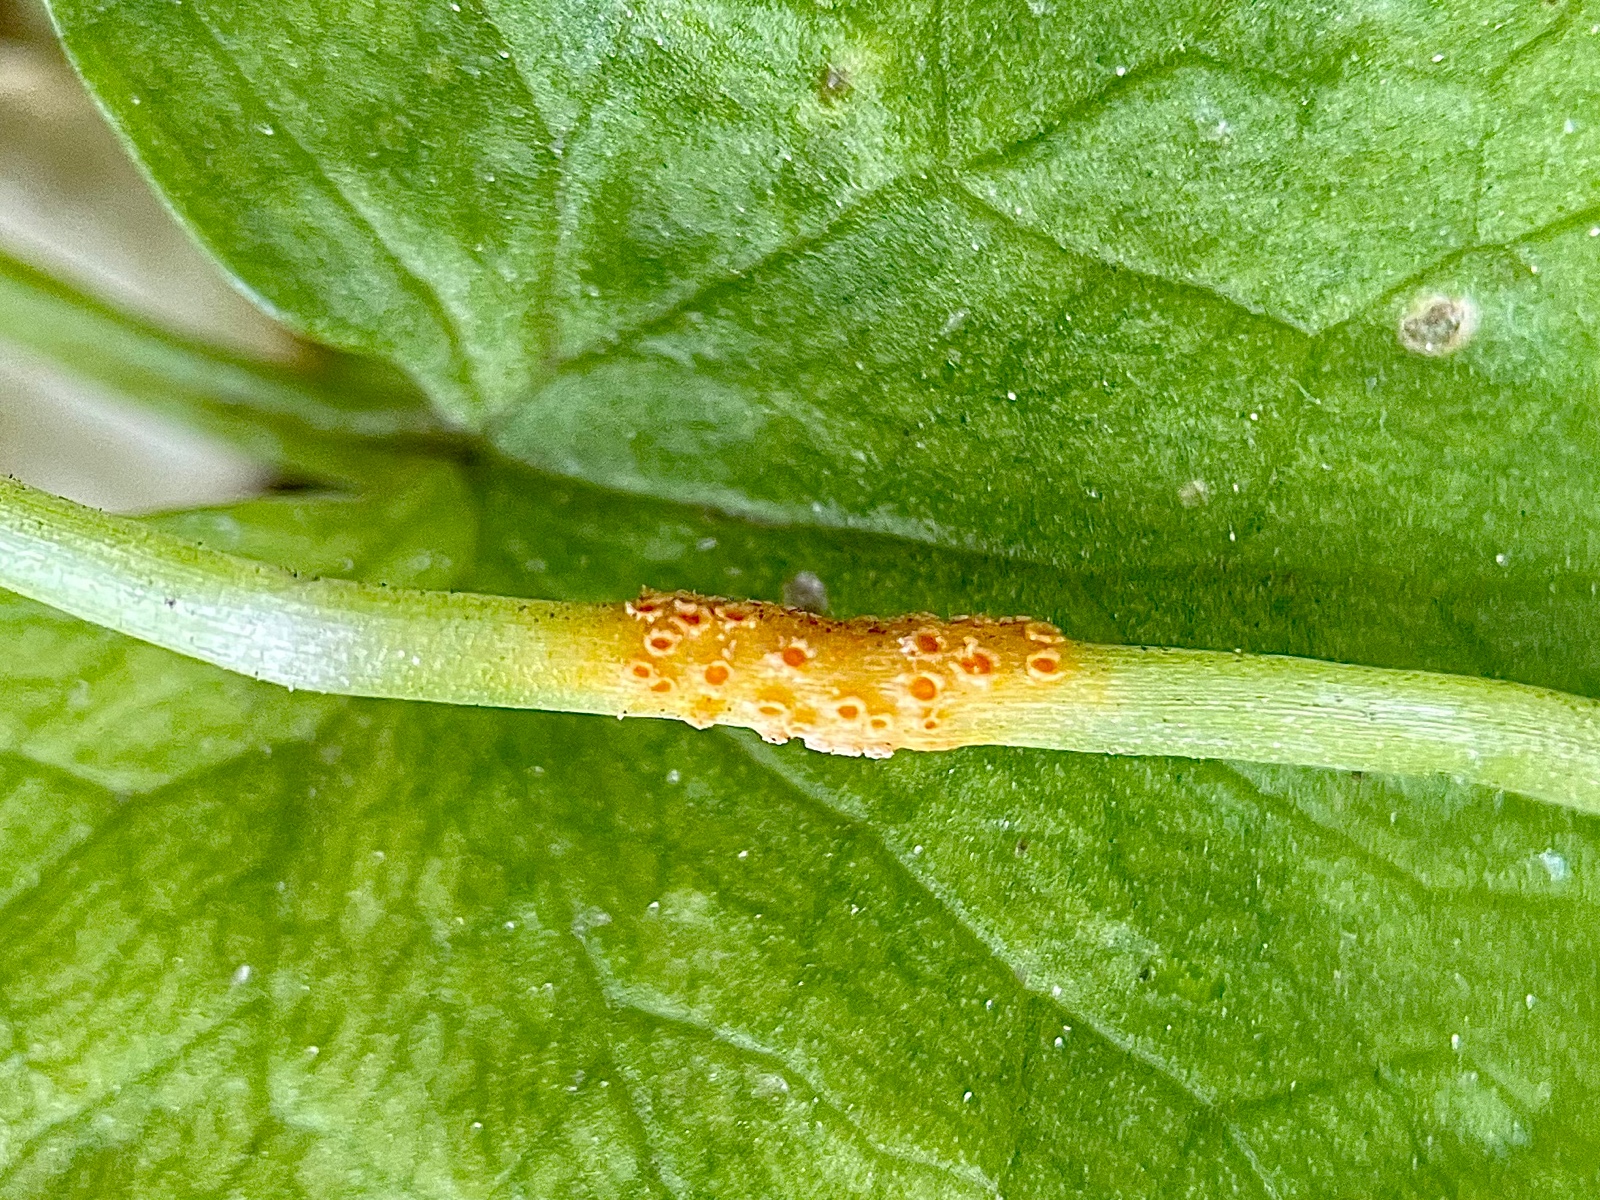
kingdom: Fungi
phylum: Basidiomycota
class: Pucciniomycetes
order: Pucciniales
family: Pucciniaceae
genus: Uromyces
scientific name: Uromyces dactylidis
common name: ranunkel-encellerust
